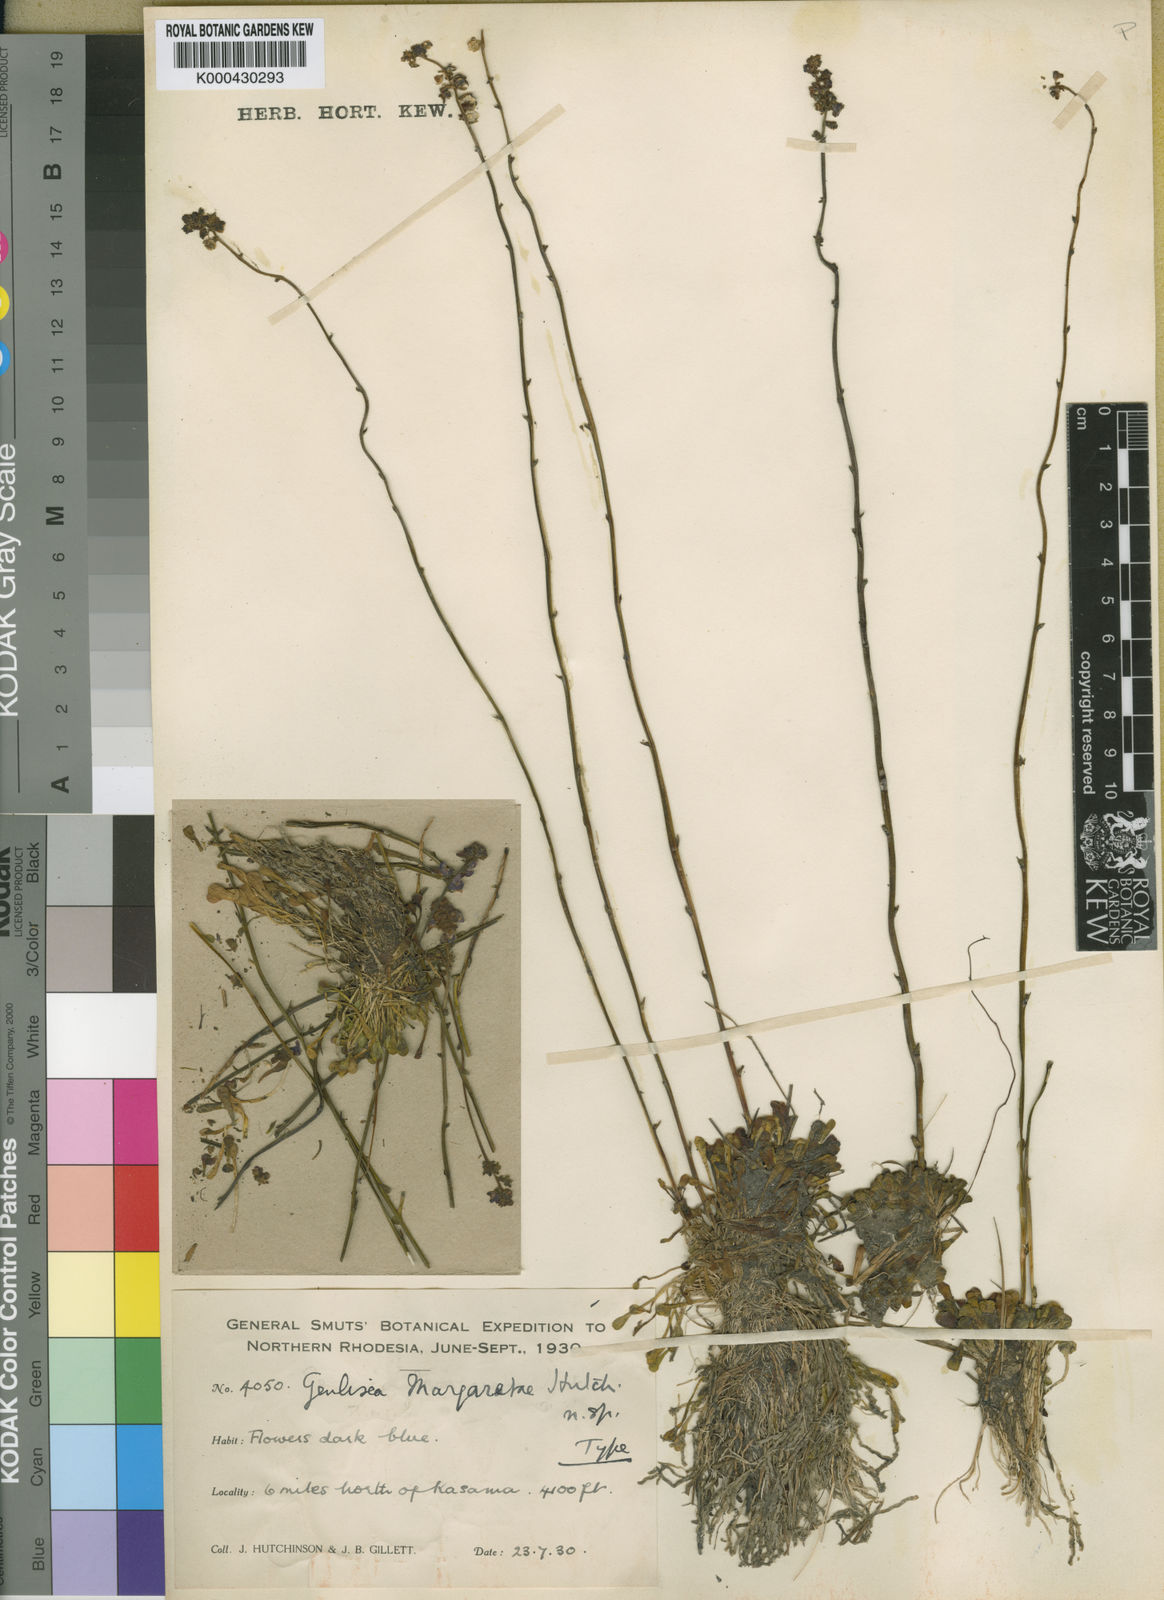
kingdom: Plantae
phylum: Tracheophyta
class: Magnoliopsida
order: Lamiales
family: Lentibulariaceae
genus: Genlisea
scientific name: Genlisea margaretae
